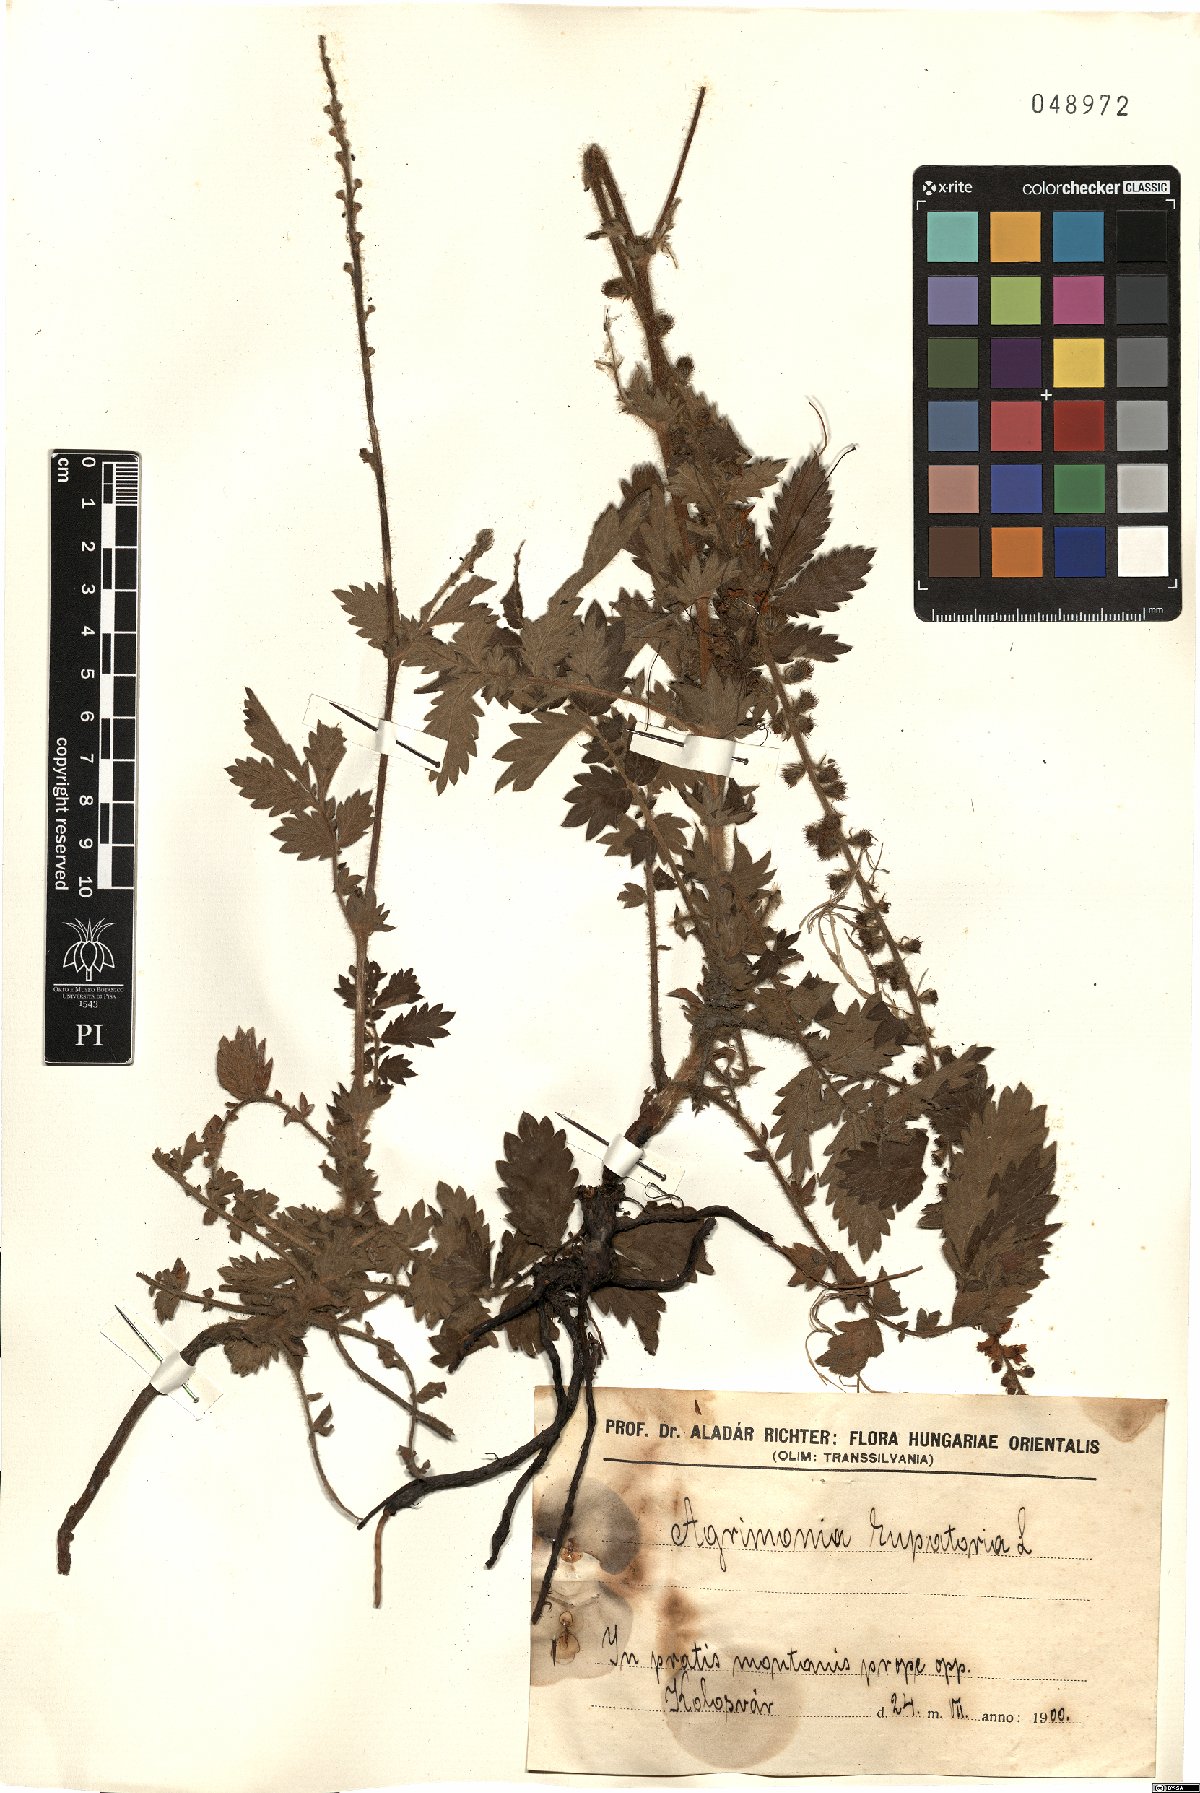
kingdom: Plantae
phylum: Tracheophyta
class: Magnoliopsida
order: Rosales
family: Rosaceae
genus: Agrimonia
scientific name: Agrimonia eupatoria
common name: Agrimony
